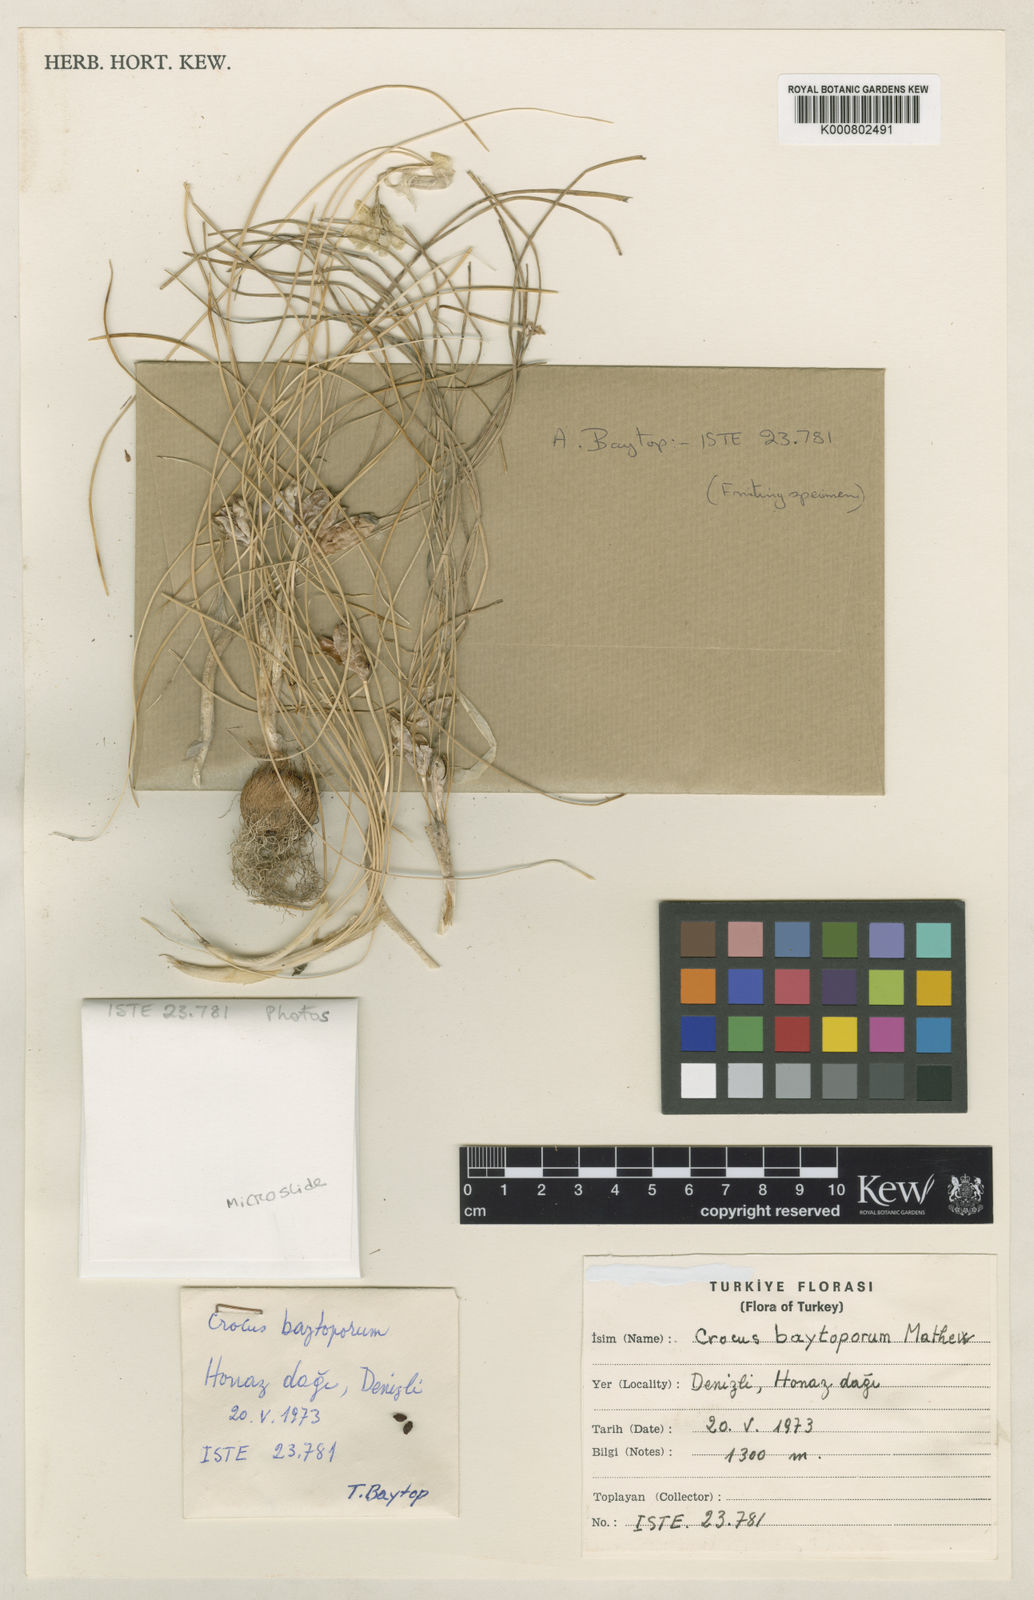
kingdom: Plantae
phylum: Tracheophyta
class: Liliopsida
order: Asparagales
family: Iridaceae
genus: Crocus
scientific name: Crocus baytopiorum
